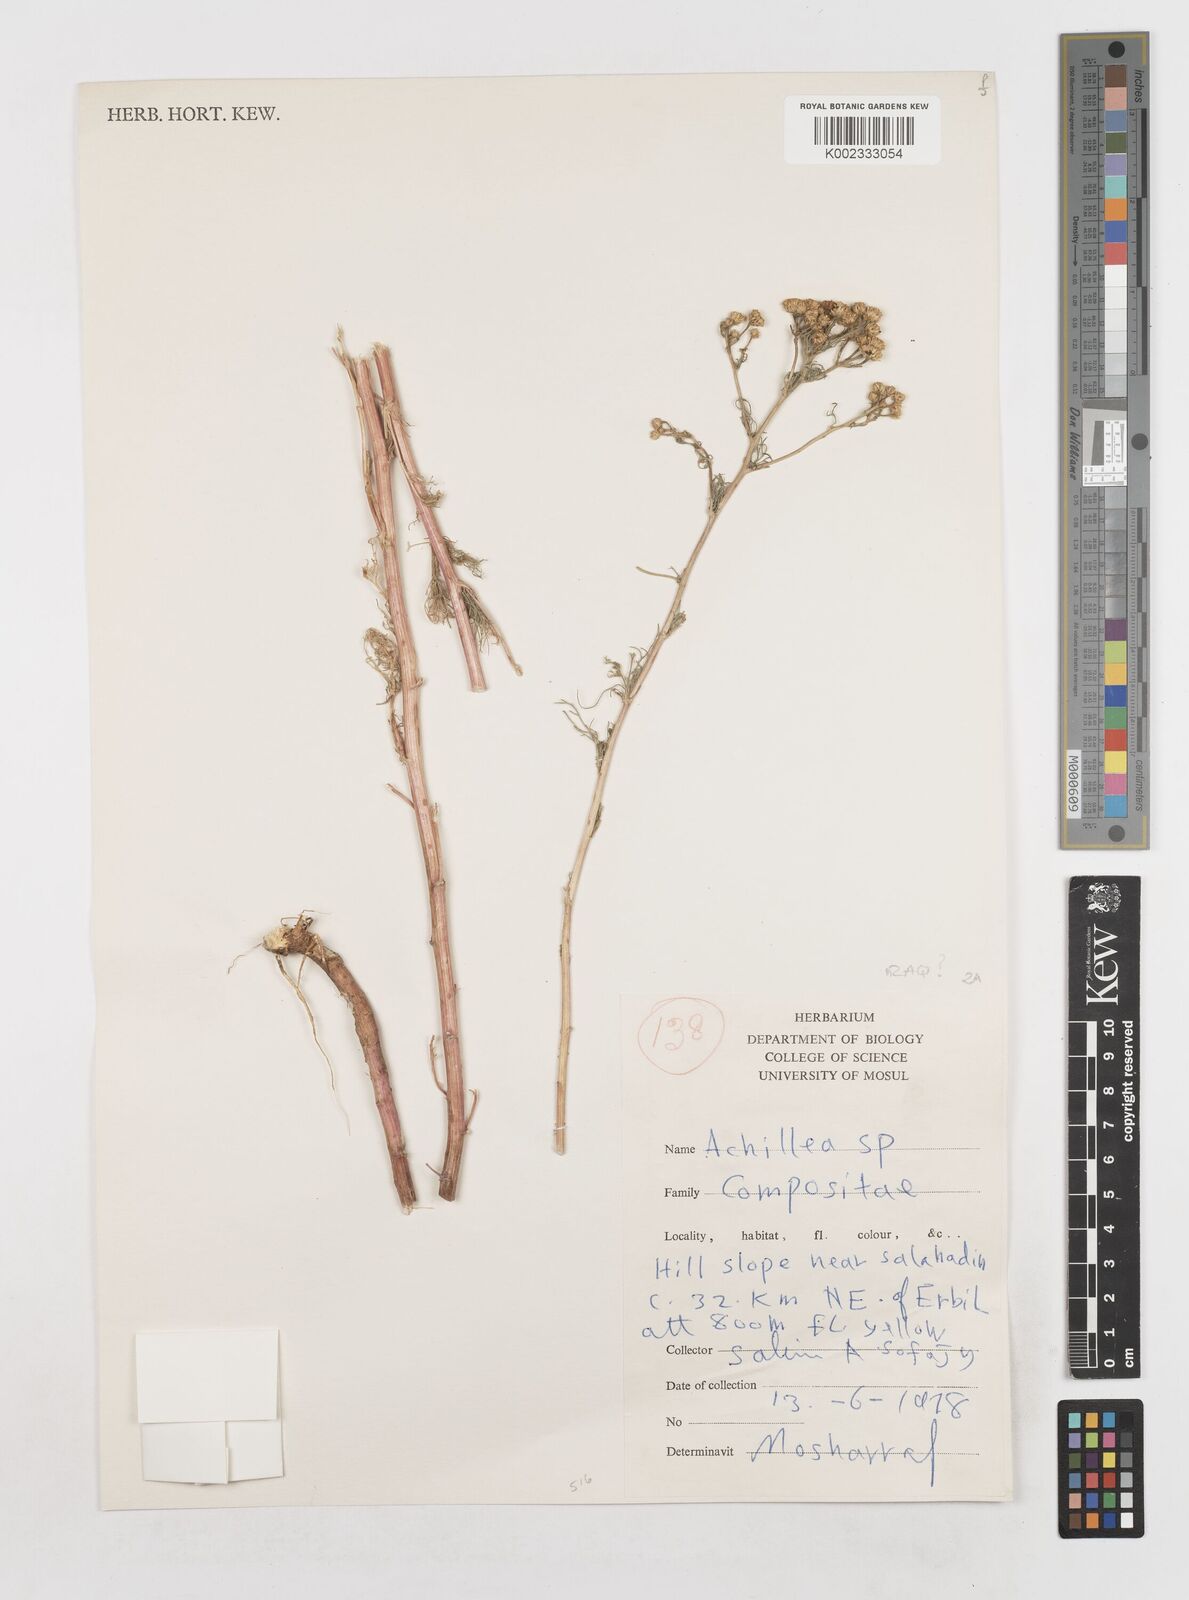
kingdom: Plantae
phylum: Tracheophyta
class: Magnoliopsida
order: Asterales
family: Asteraceae
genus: Achillea
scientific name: Achillea
